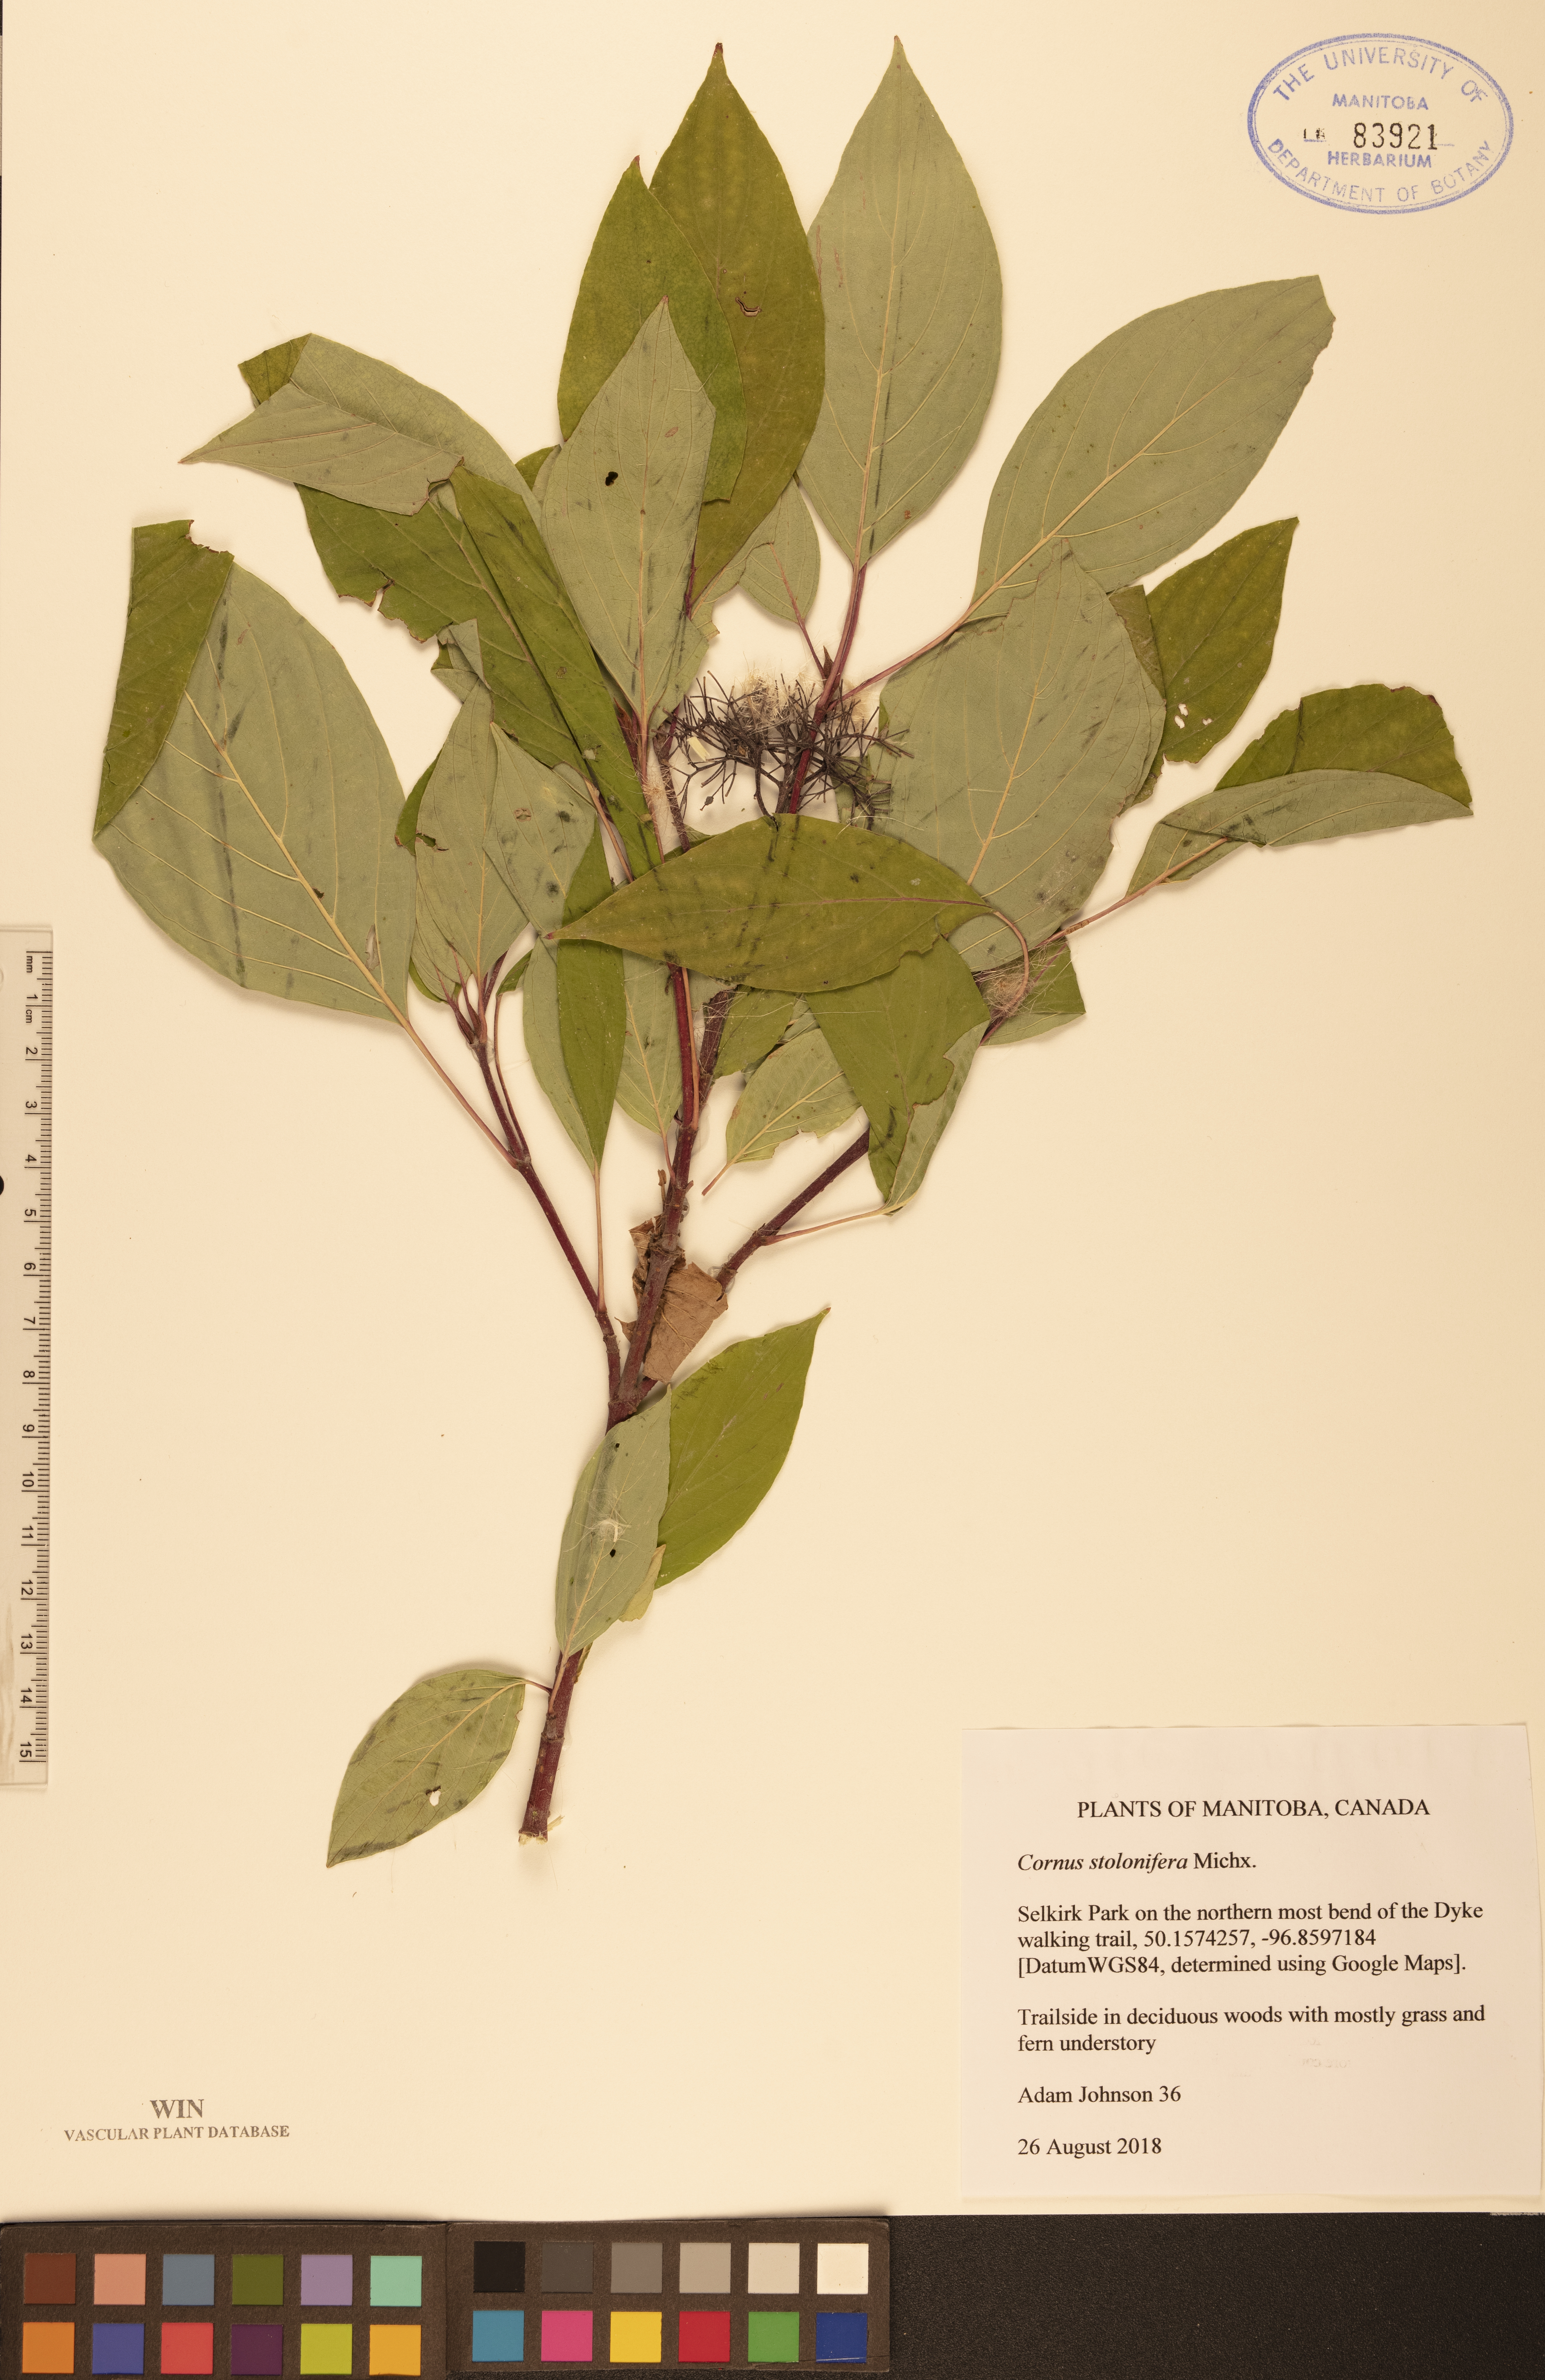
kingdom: Plantae
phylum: Tracheophyta
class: Magnoliopsida
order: Cornales
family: Cornaceae
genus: Cornus
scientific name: Cornus sericea
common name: Red-osier dogwood
